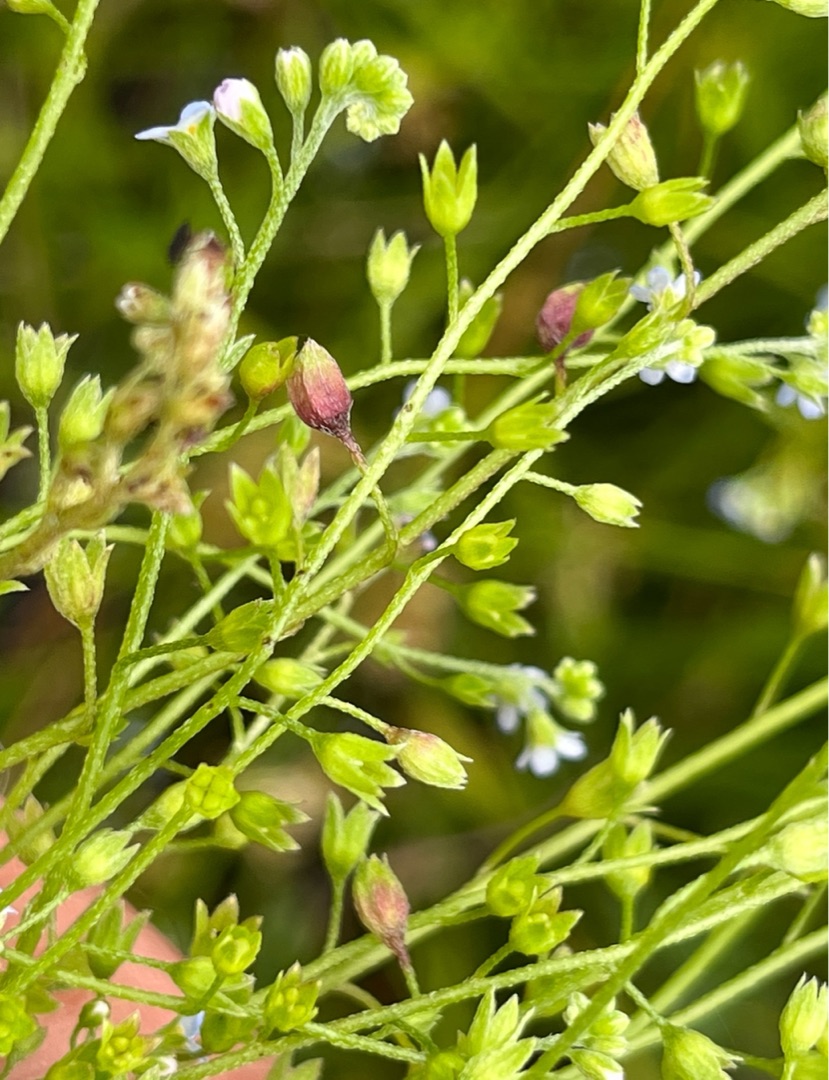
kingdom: Animalia
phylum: Arthropoda
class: Insecta
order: Diptera
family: Cecidomyiidae
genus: Dasineura
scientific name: Dasineura myosotidis
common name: Forglemmigejgalmyg
